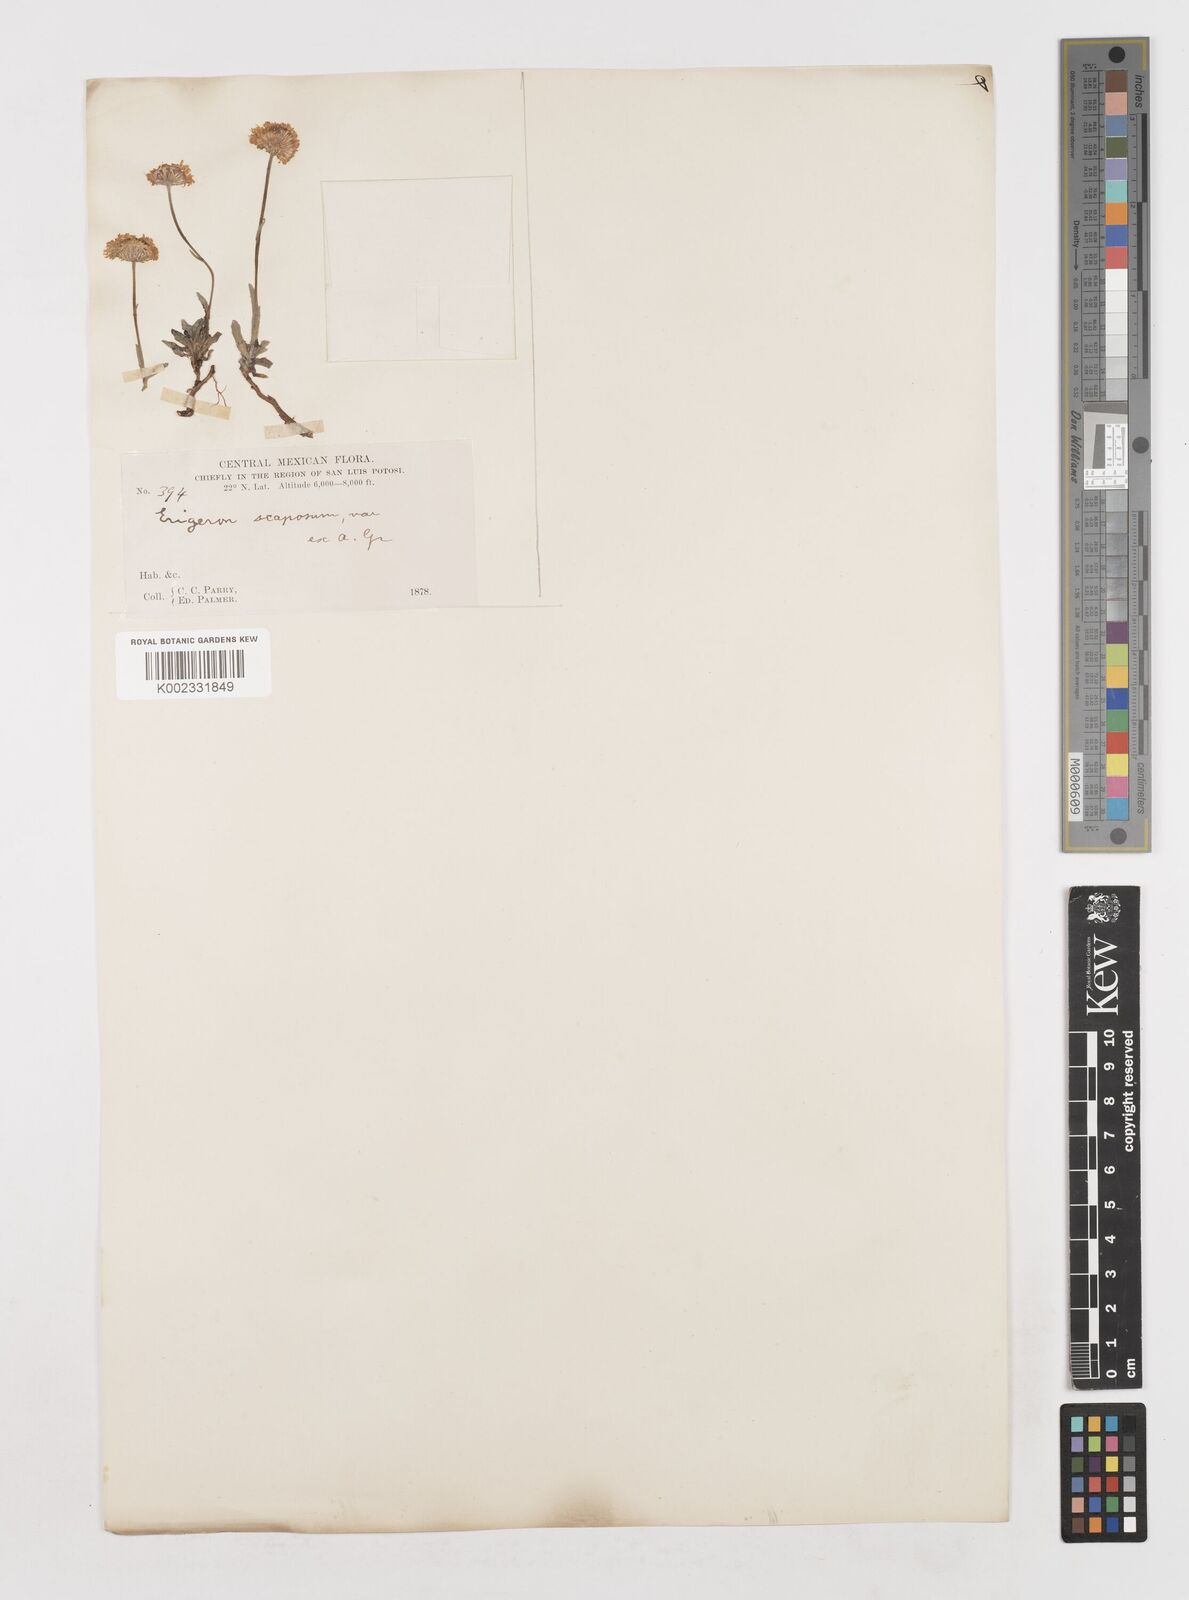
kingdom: Plantae
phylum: Tracheophyta
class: Magnoliopsida
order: Asterales
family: Asteraceae
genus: Erigeron
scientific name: Erigeron longipes
